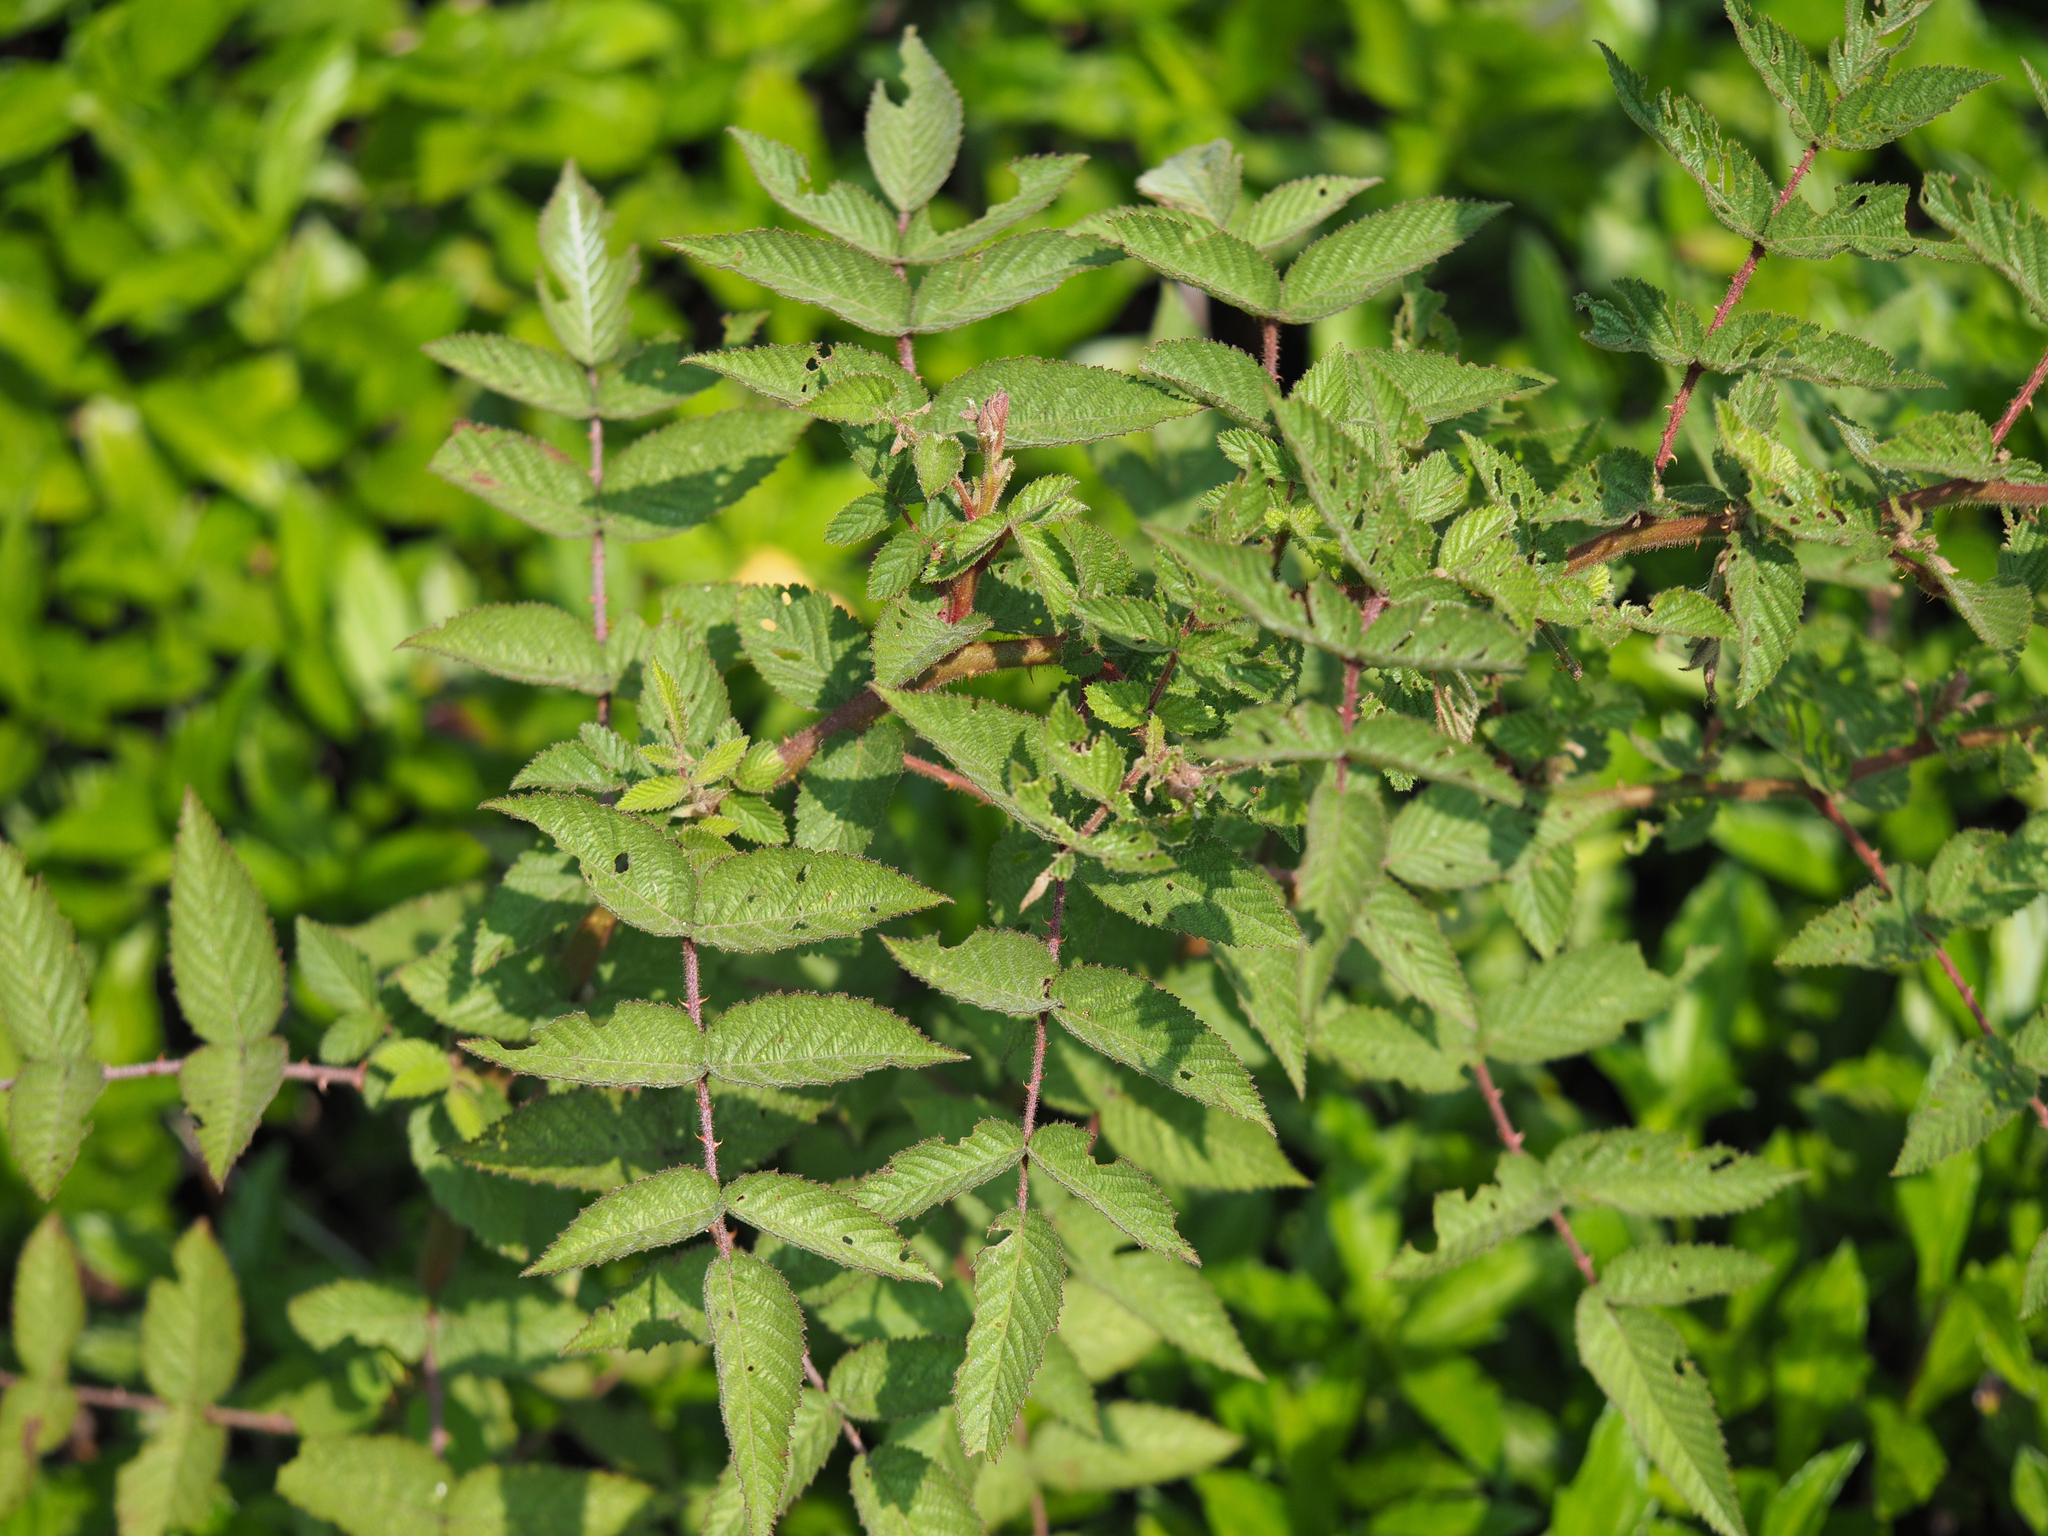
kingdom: Plantae
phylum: Tracheophyta
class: Magnoliopsida
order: Rosales
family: Rosaceae
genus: Rubus
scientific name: Rubus croceacanthus
